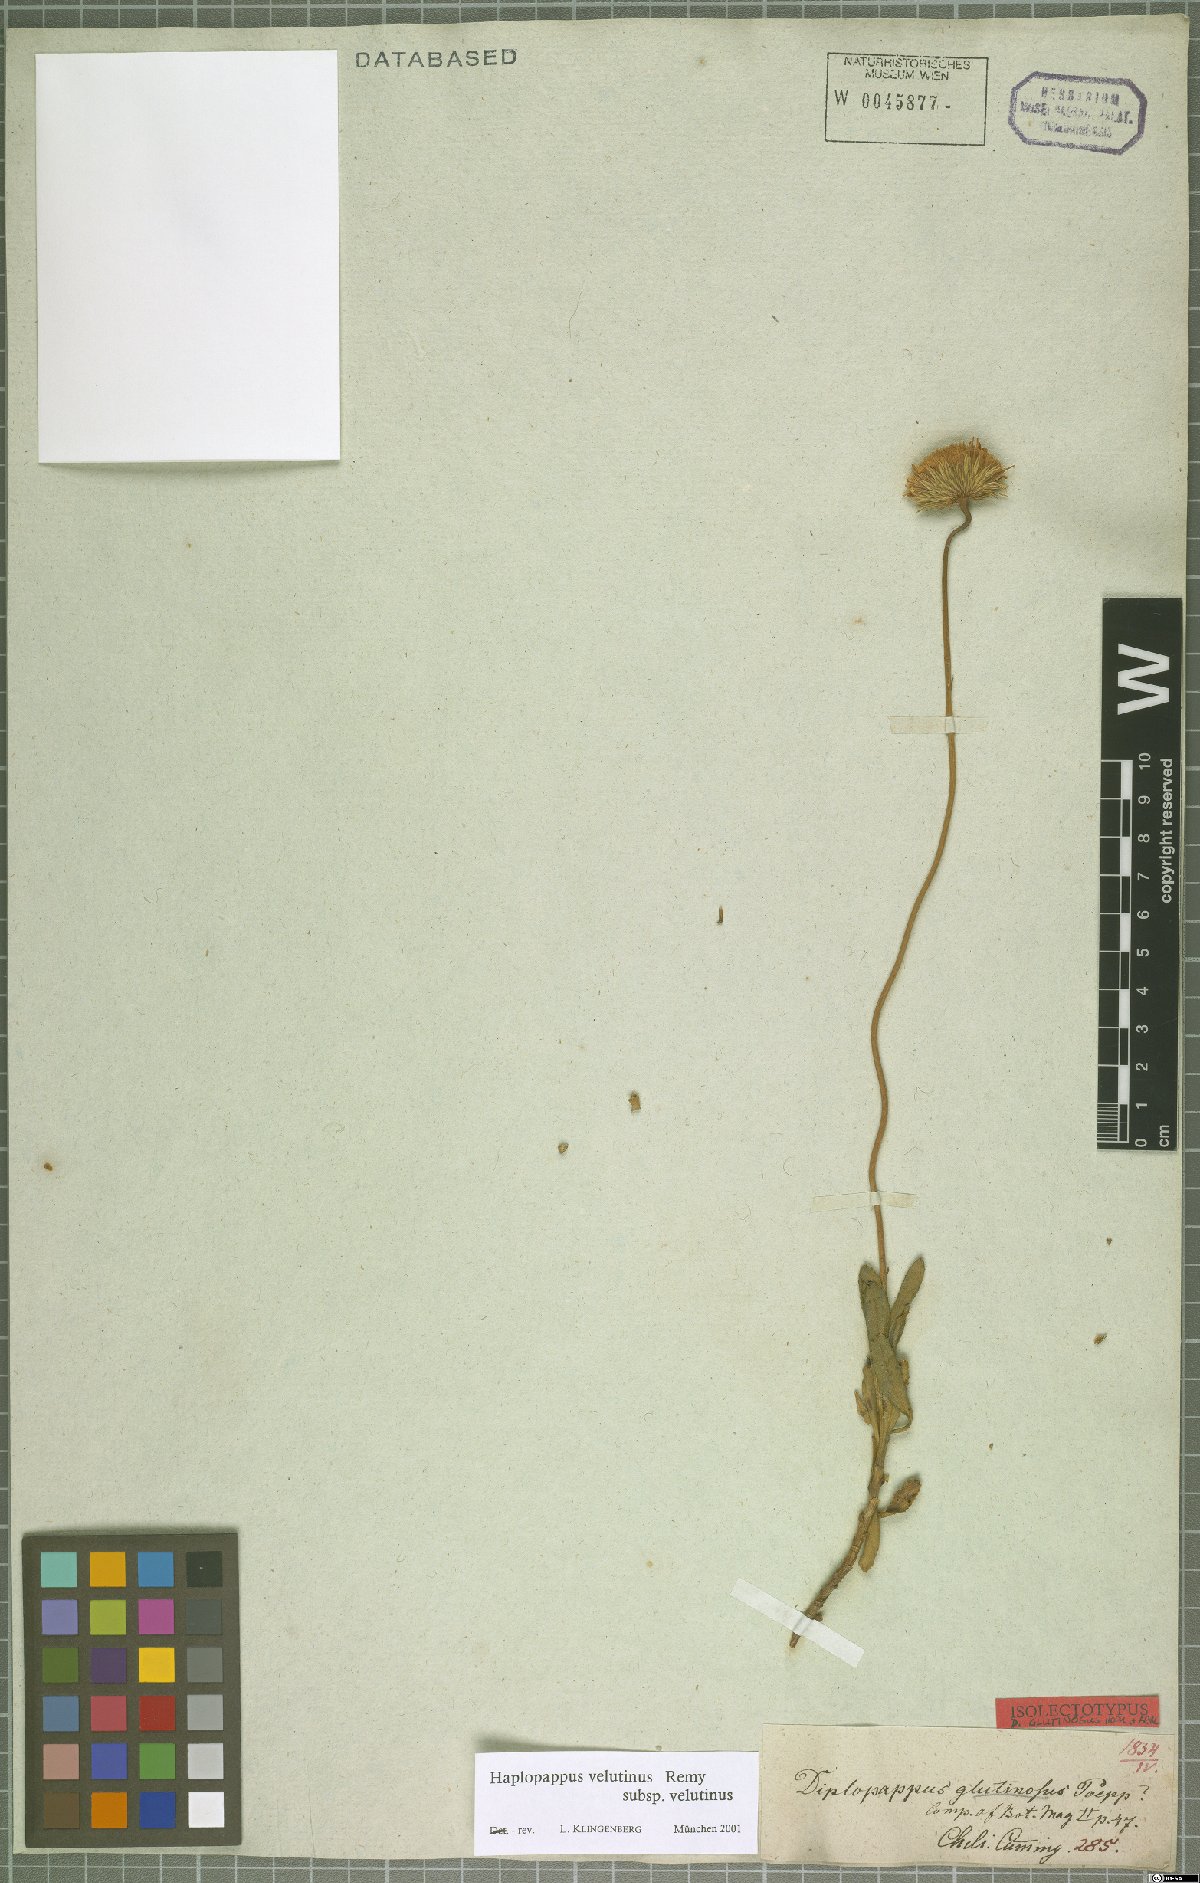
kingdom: Plantae
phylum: Tracheophyta
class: Magnoliopsida
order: Asterales
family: Asteraceae
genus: Haplopappus
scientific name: Haplopappus velutinus
